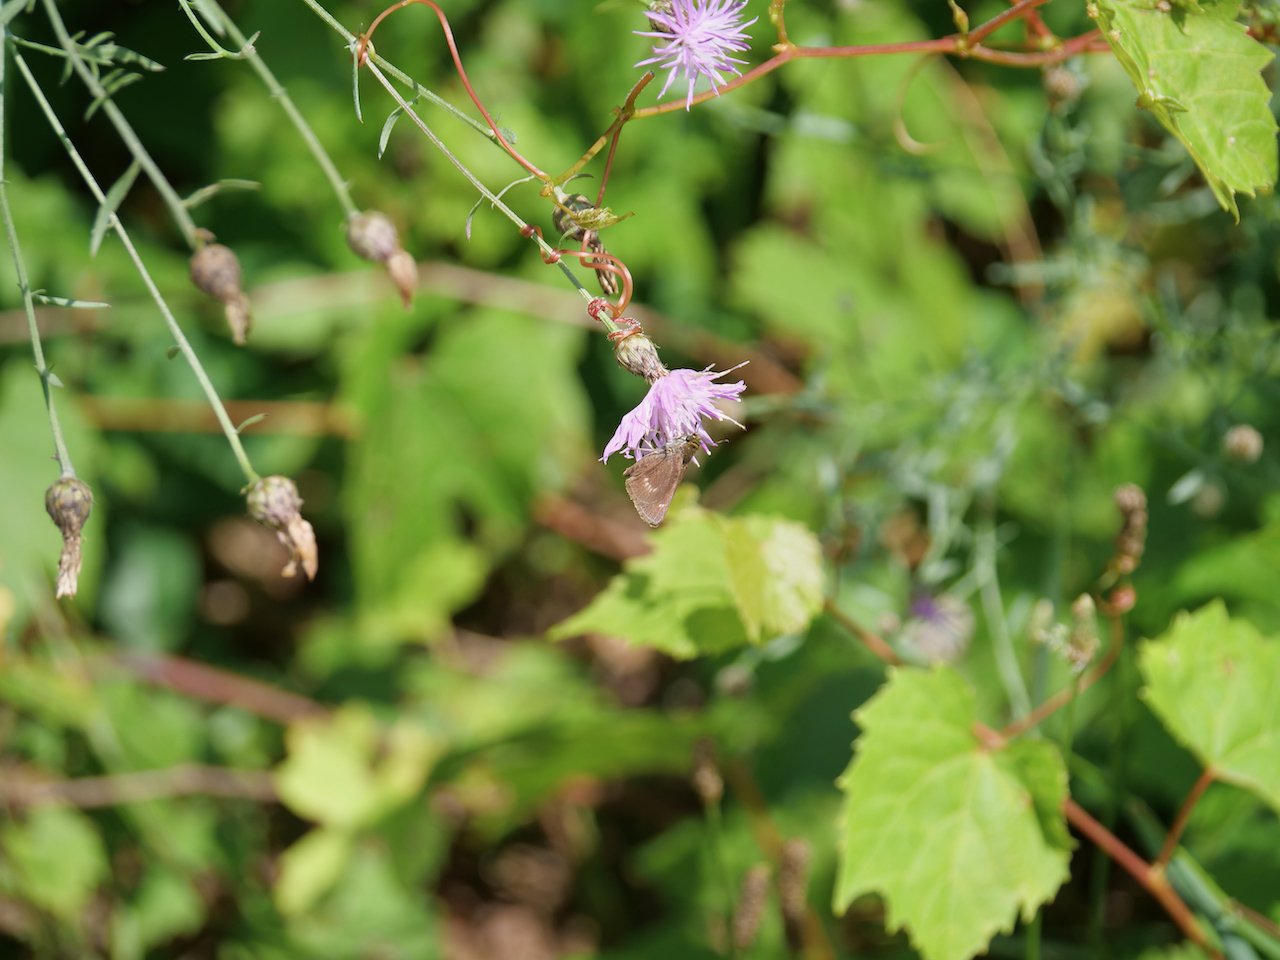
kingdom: Animalia
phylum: Arthropoda
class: Insecta
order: Lepidoptera
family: Hesperiidae
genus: Euphyes
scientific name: Euphyes
